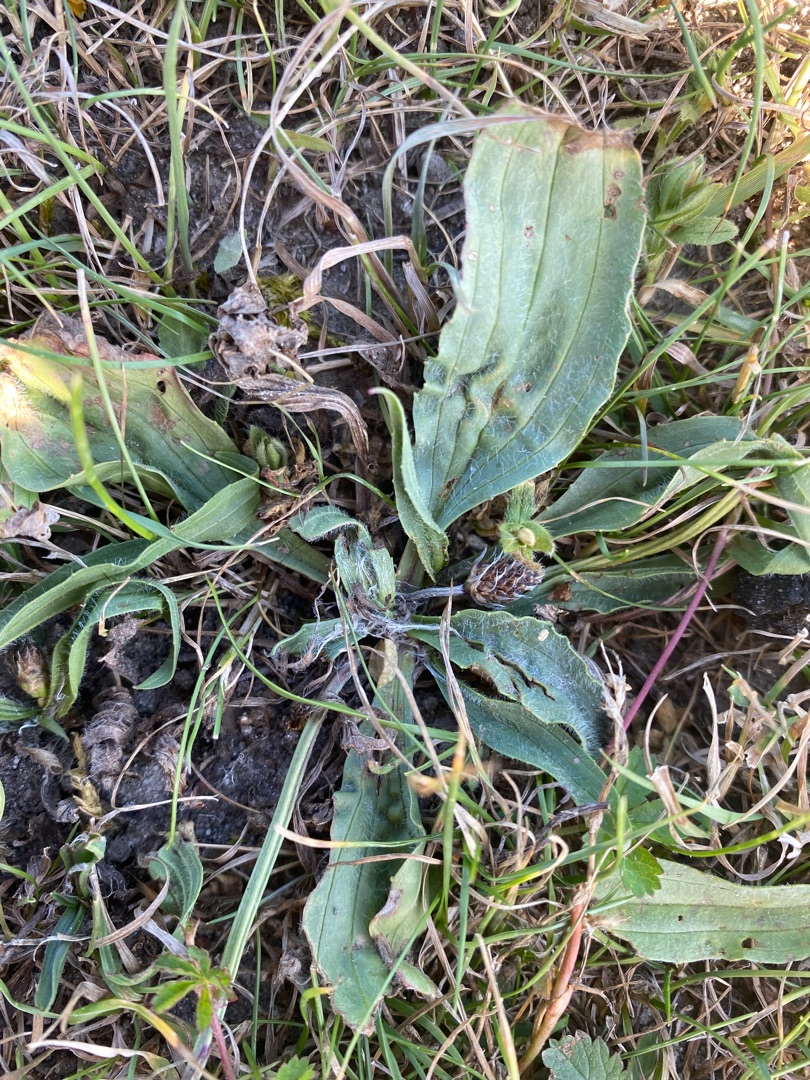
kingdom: Plantae
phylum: Tracheophyta
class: Magnoliopsida
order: Lamiales
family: Plantaginaceae
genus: Plantago
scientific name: Plantago
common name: Vejbredslægten
